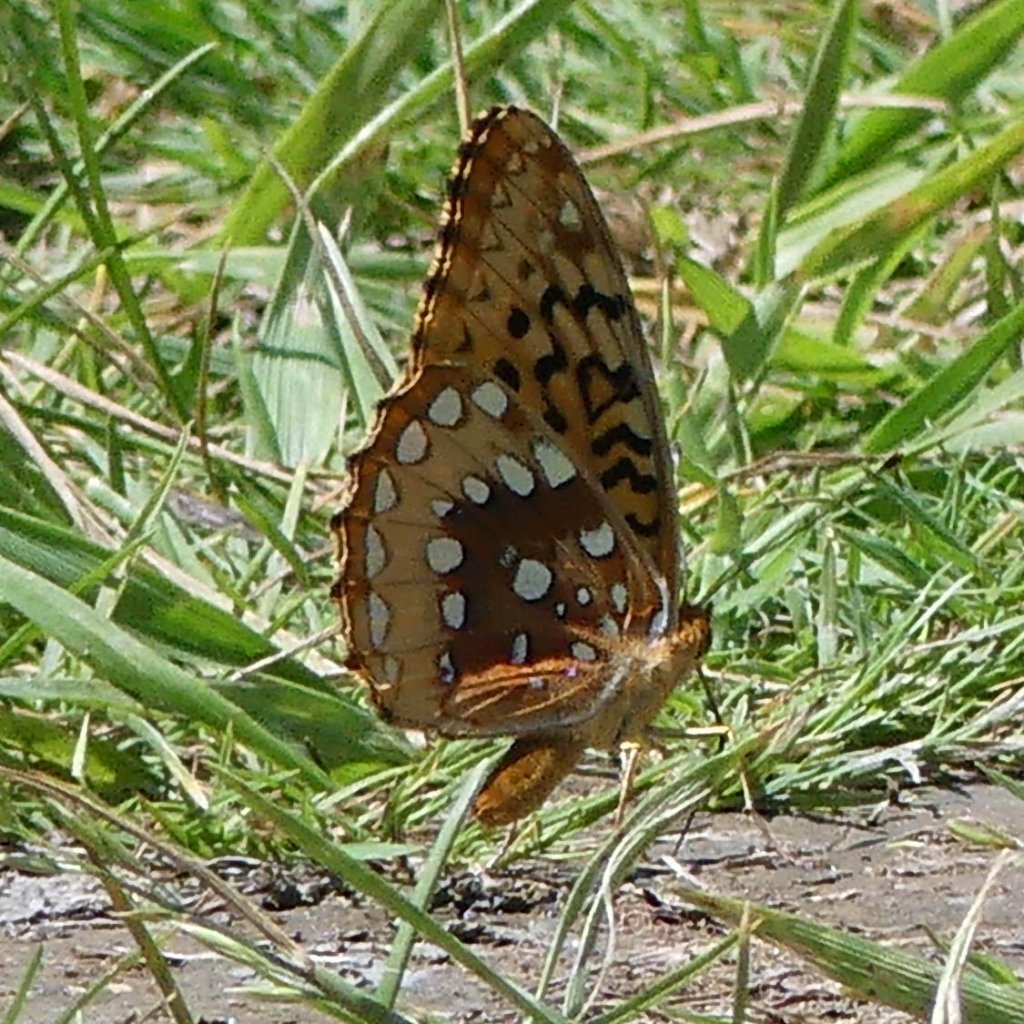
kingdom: Animalia
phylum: Arthropoda
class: Insecta
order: Lepidoptera
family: Nymphalidae
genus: Speyeria
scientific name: Speyeria cybele
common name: Great Spangled Fritillary
